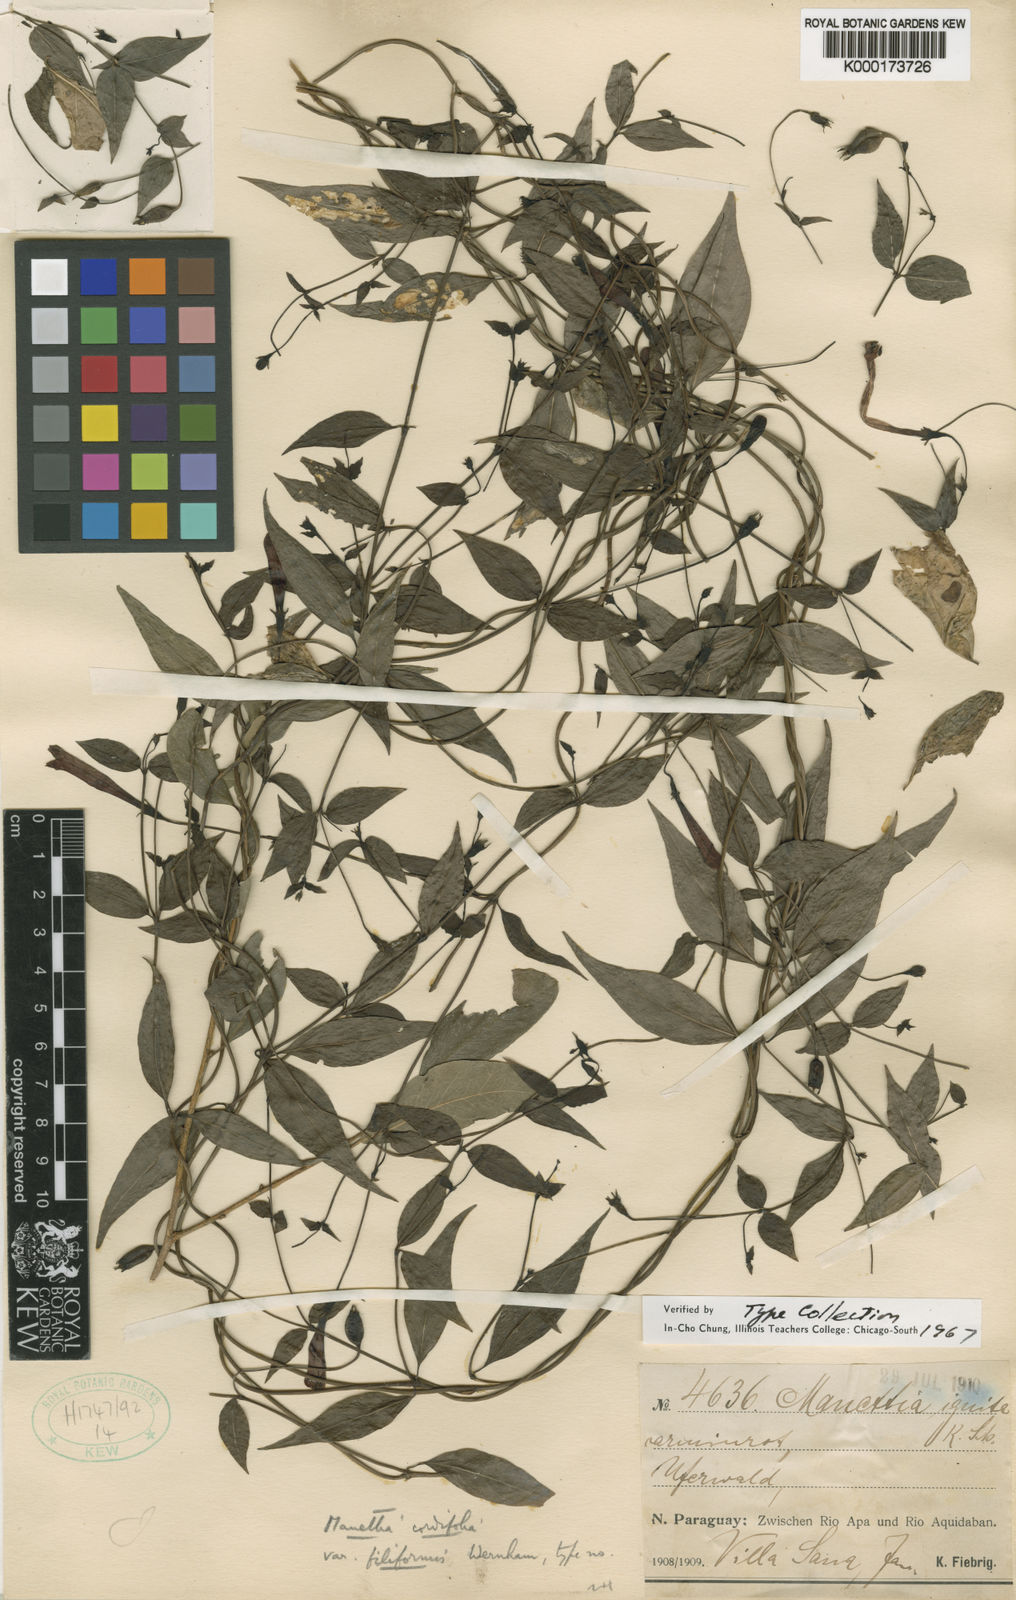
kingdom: Plantae
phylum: Tracheophyta
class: Magnoliopsida
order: Gentianales
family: Rubiaceae
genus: Manettia
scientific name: Manettia cordifolia
